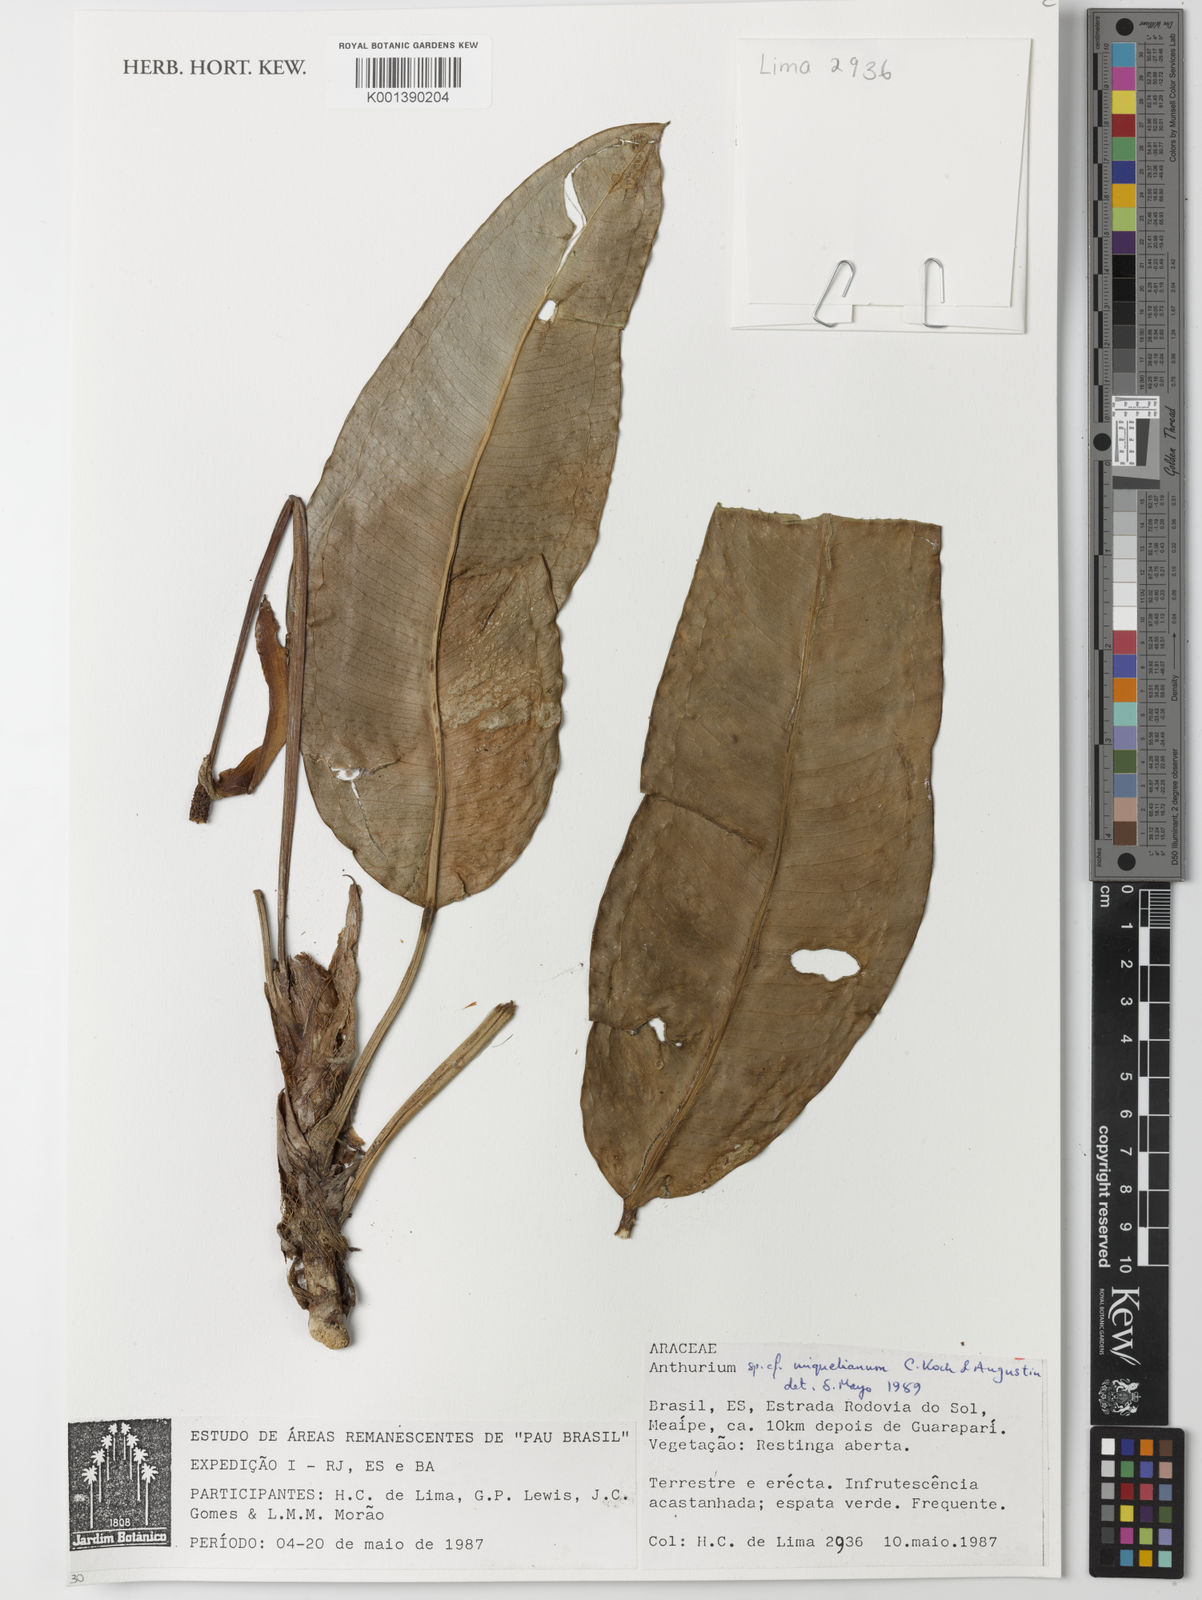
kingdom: Plantae
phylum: Tracheophyta
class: Liliopsida
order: Alismatales
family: Araceae
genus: Anthurium
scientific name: Anthurium parasiticum
